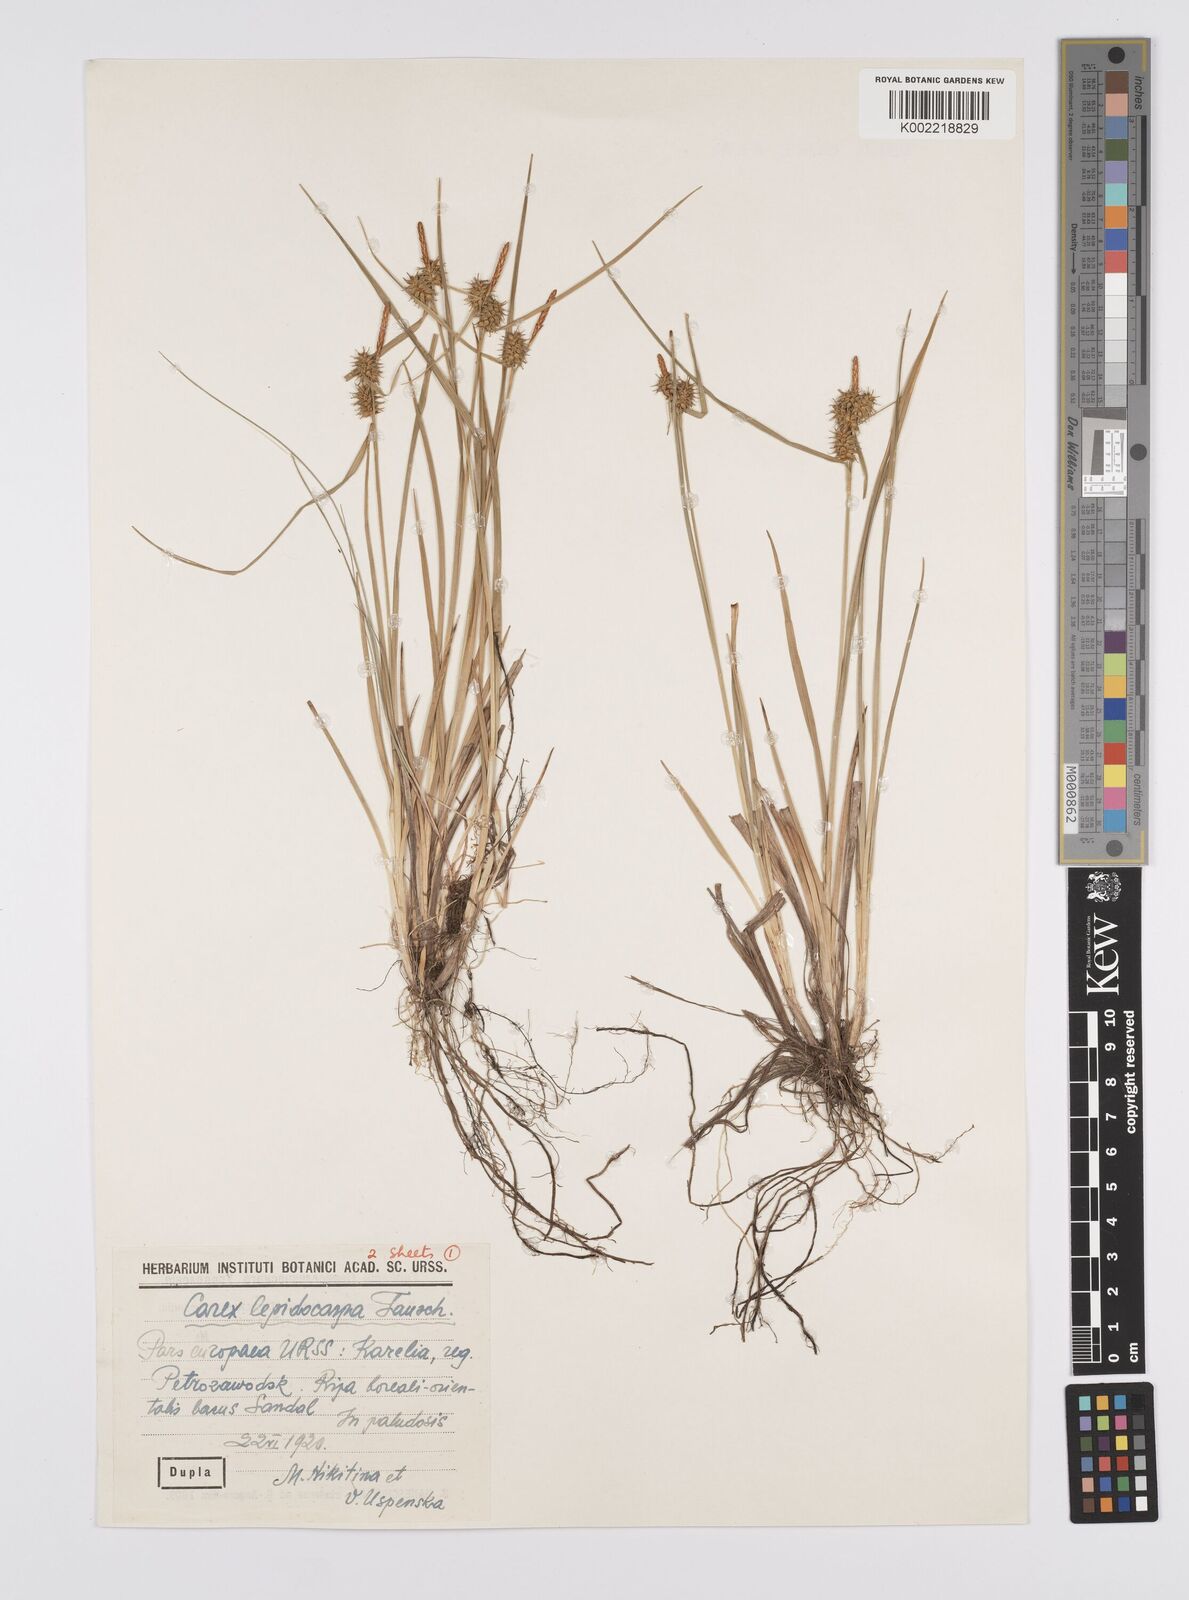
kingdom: Plantae
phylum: Tracheophyta
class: Liliopsida
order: Poales
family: Cyperaceae
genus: Carex
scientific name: Carex lepidocarpa
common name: Long-stalked yellow-sedge
